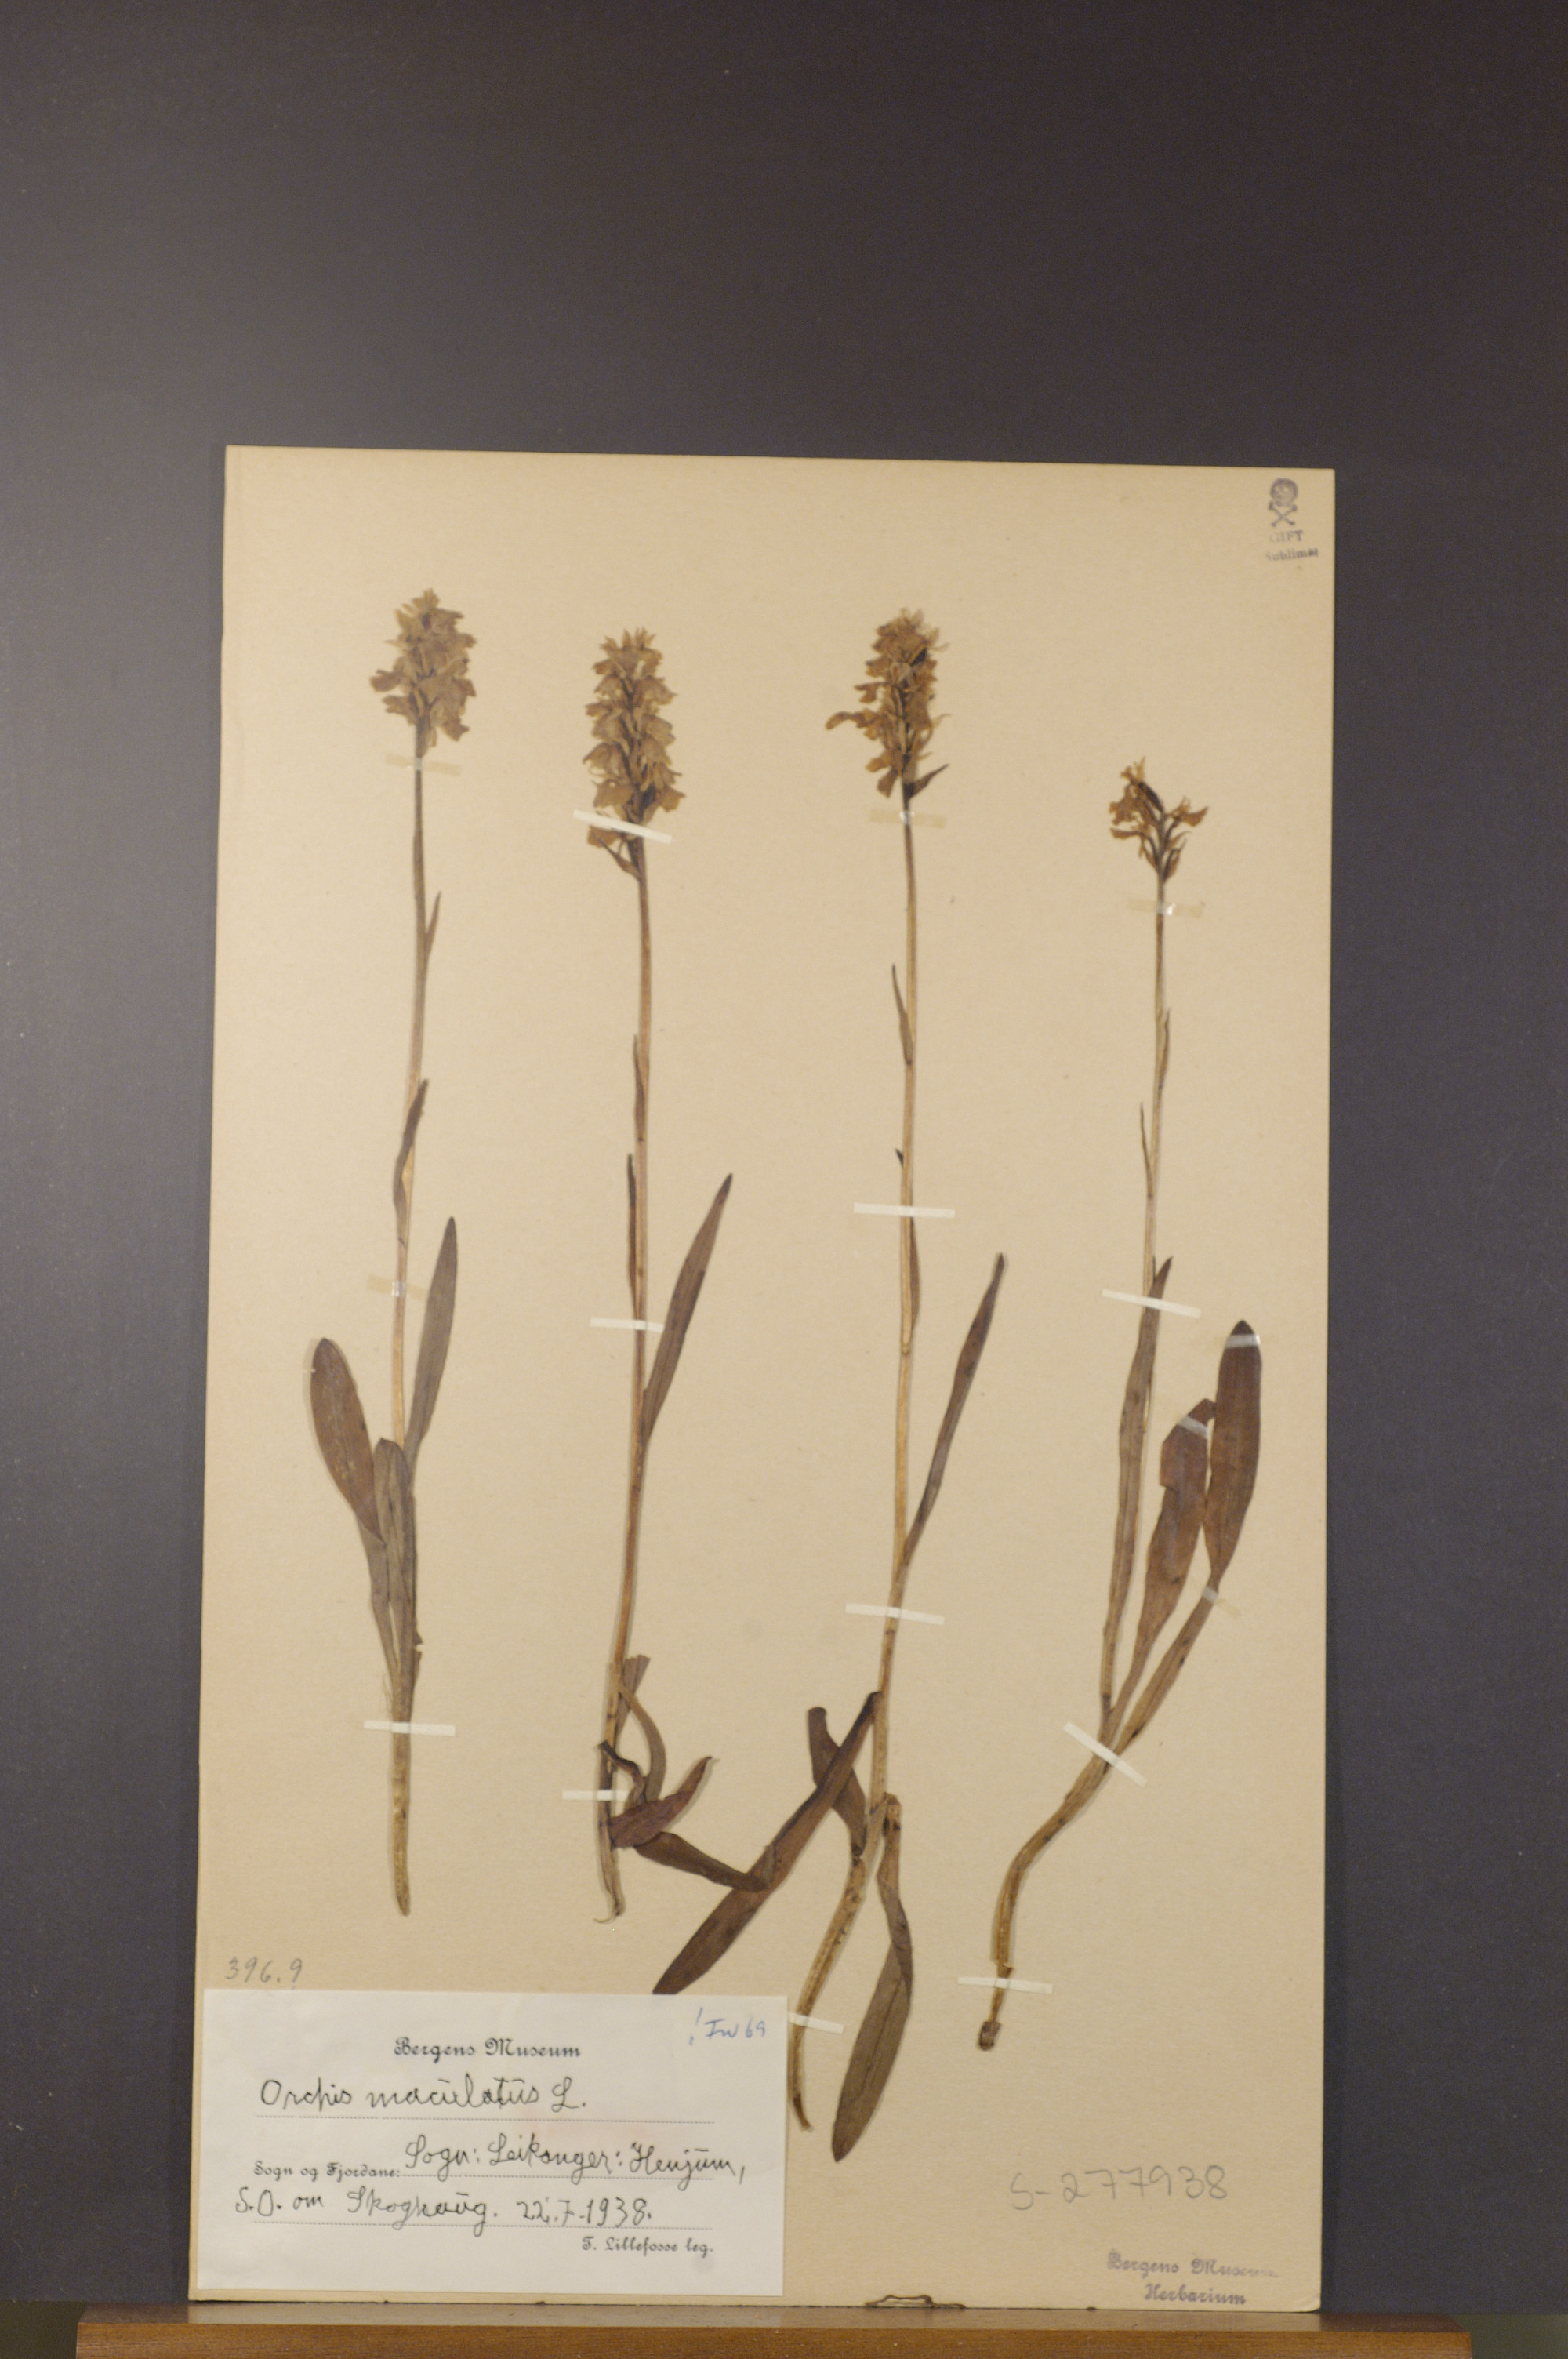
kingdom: Plantae
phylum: Tracheophyta
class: Liliopsida
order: Asparagales
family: Orchidaceae
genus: Dactylorhiza
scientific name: Dactylorhiza maculata
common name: Heath spotted-orchid
